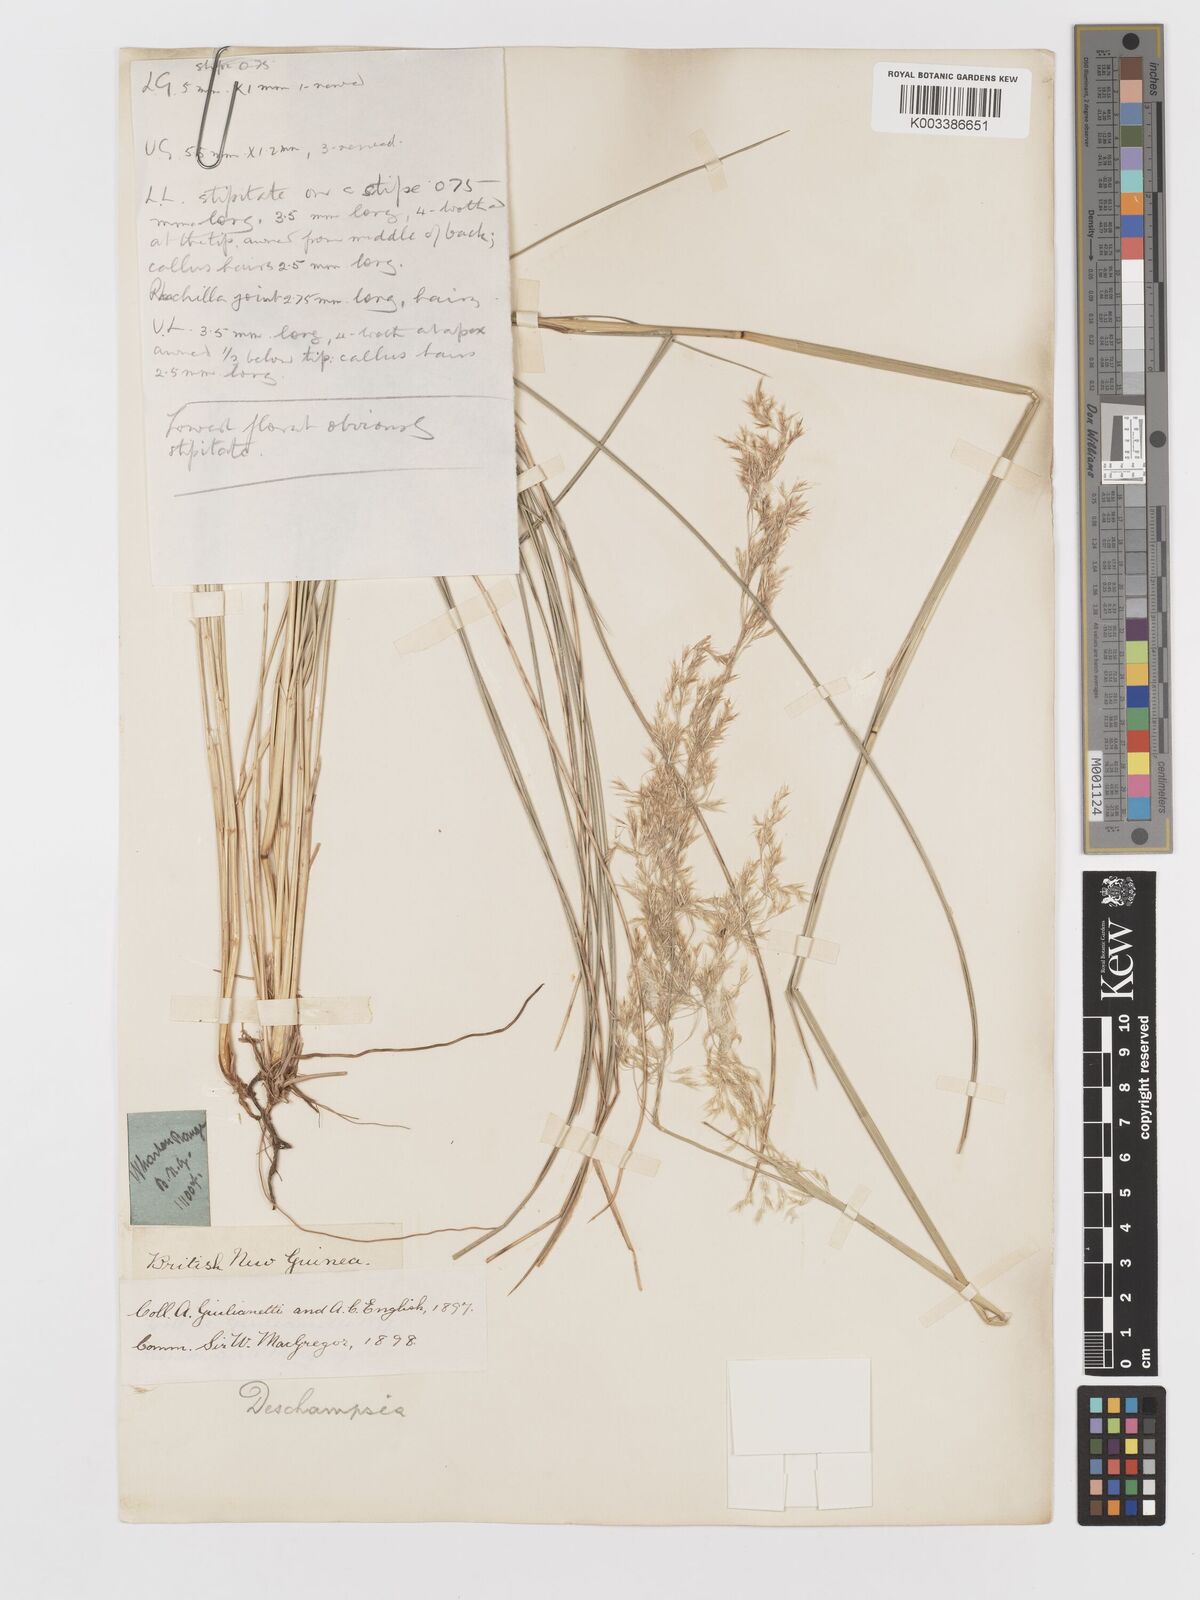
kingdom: Plantae
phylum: Tracheophyta
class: Liliopsida
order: Poales
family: Poaceae
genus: Deschampsia
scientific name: Deschampsia klossii
